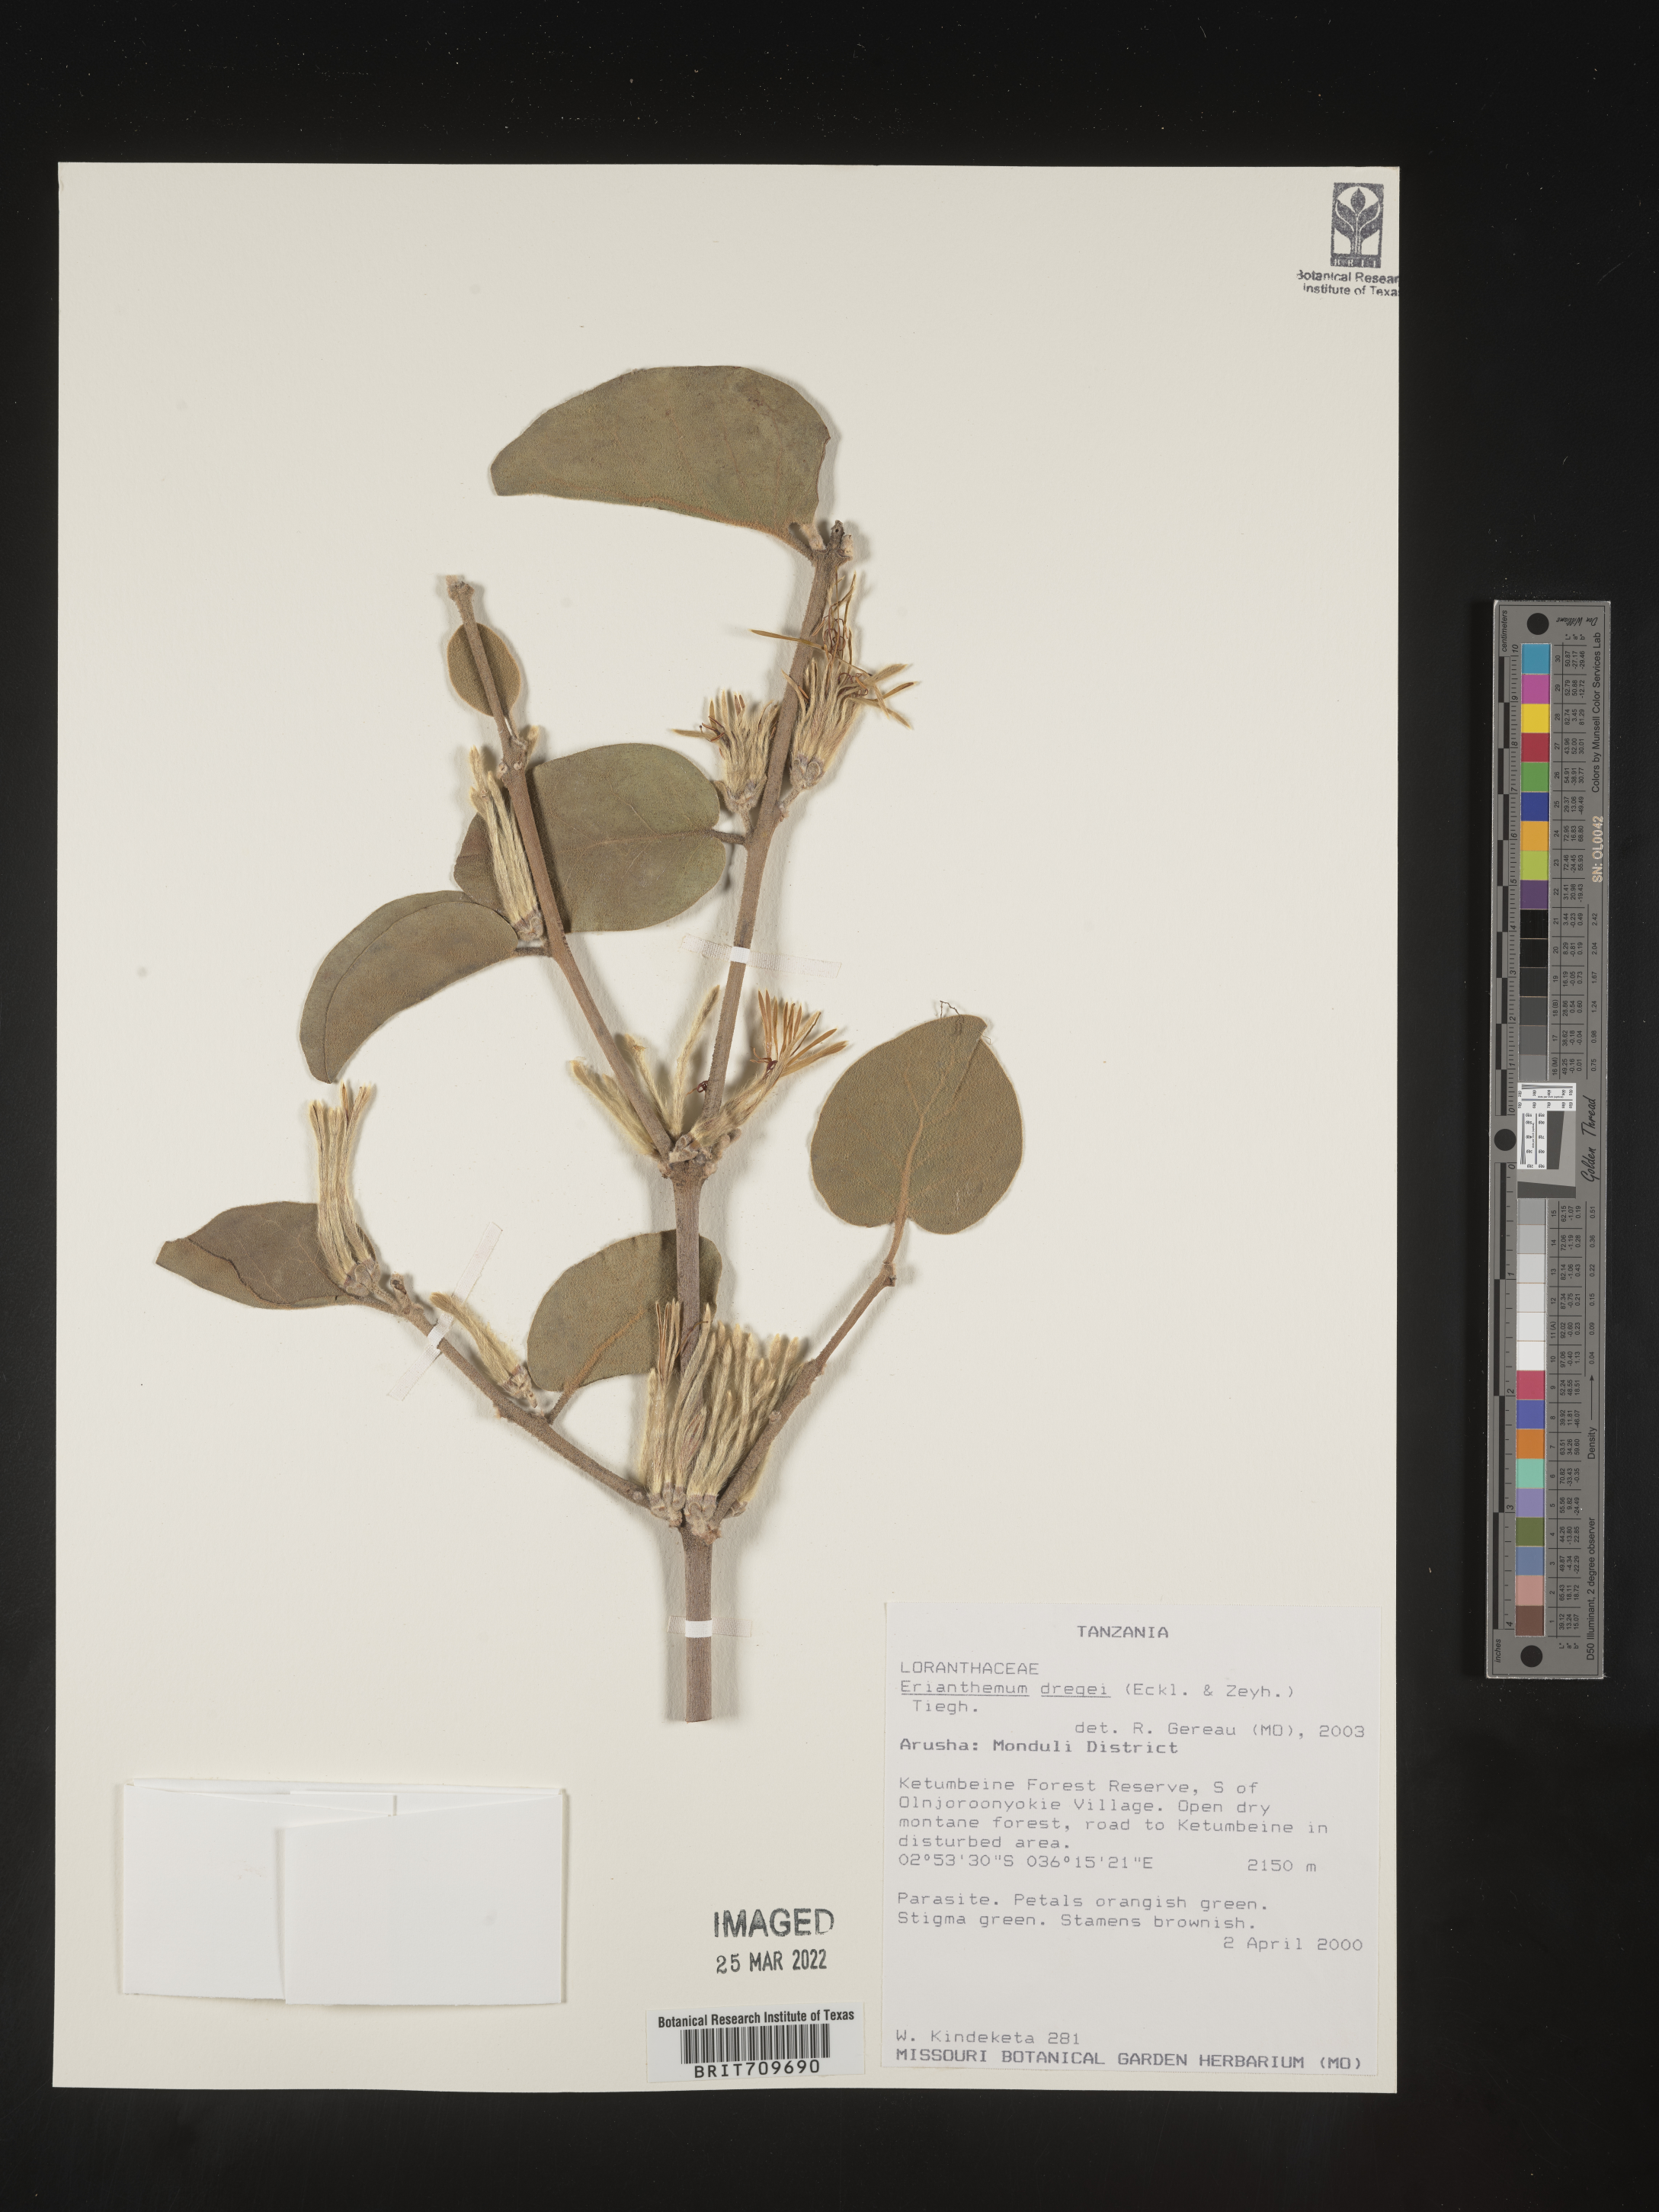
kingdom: Plantae
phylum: Tracheophyta
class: Magnoliopsida
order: Santalales
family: Loranthaceae
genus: Erianthemum
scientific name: Erianthemum
